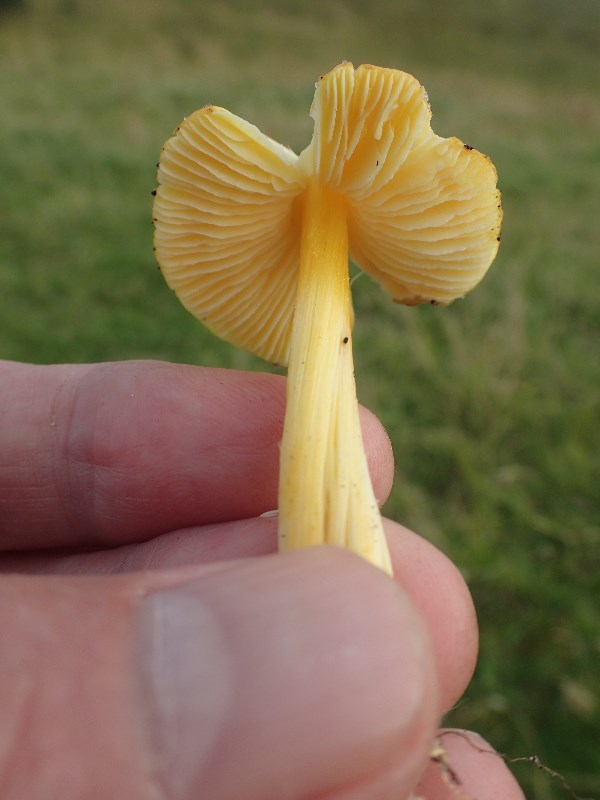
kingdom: Fungi
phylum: Basidiomycota
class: Agaricomycetes
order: Agaricales
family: Hygrophoraceae
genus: Hygrocybe
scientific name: Hygrocybe acutoconica
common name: spidspuklet vokshat
